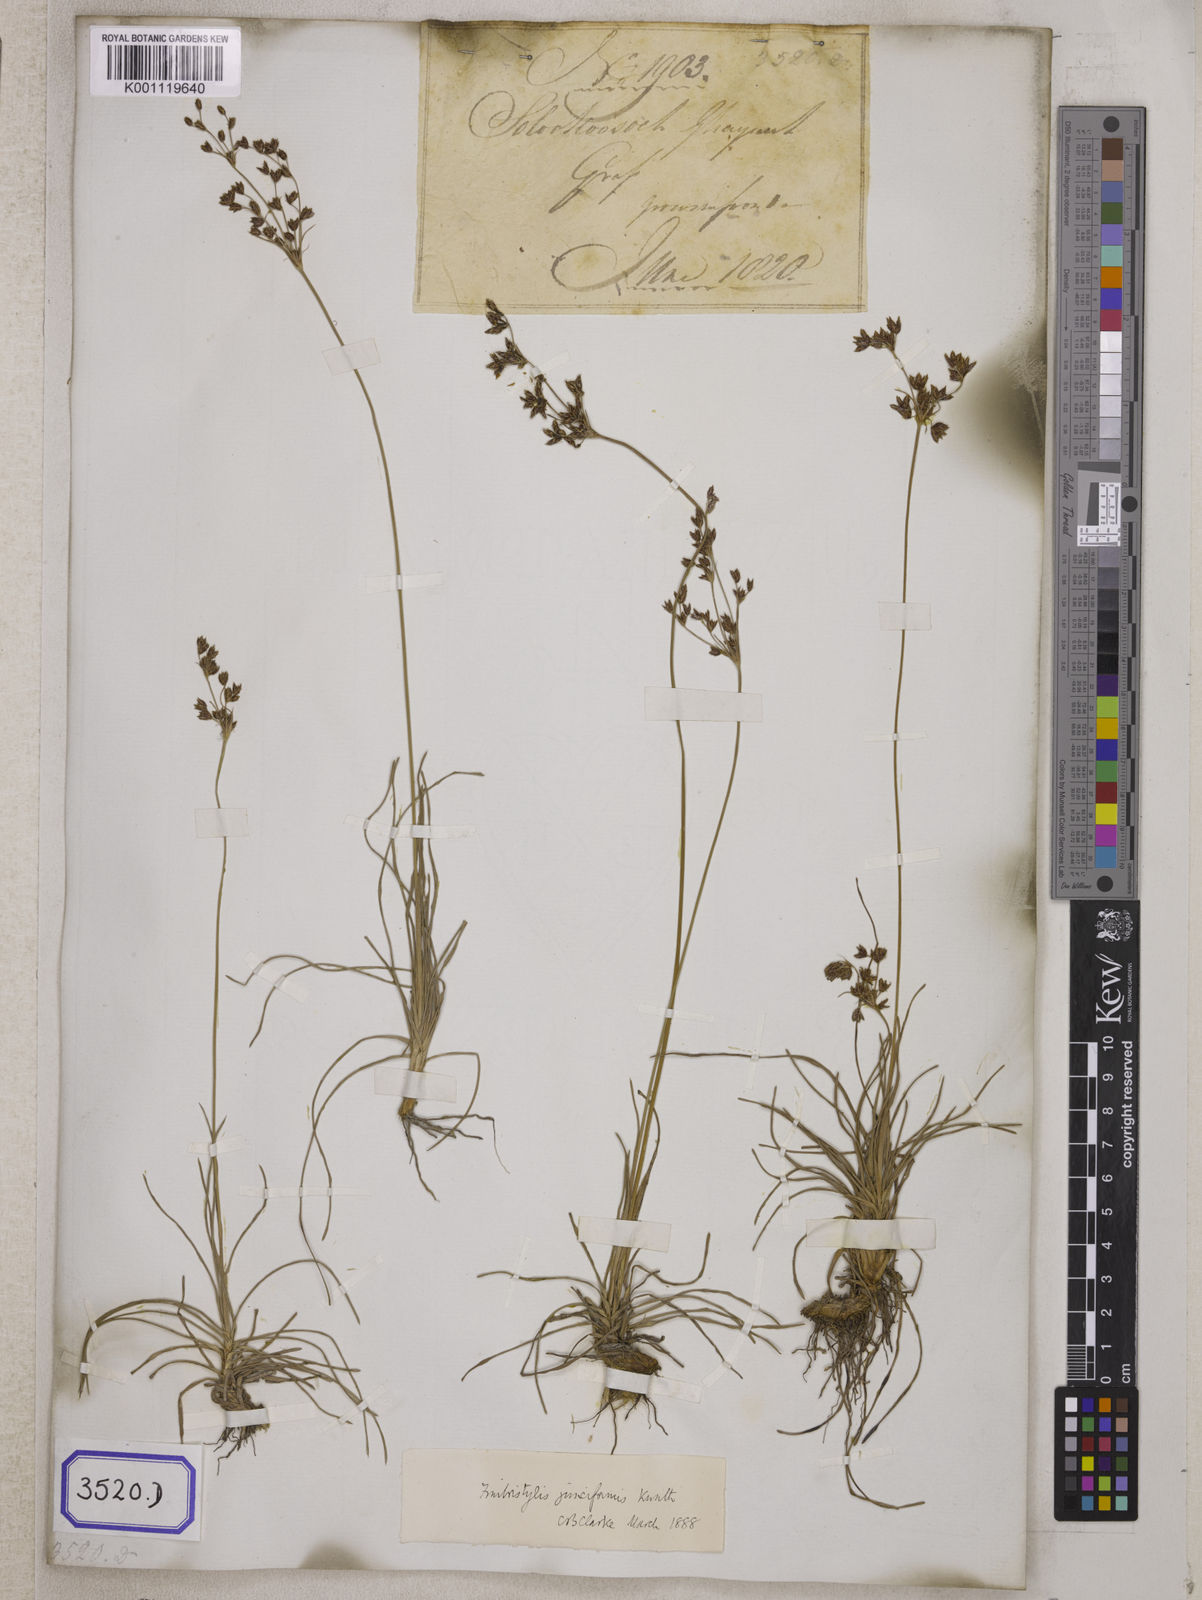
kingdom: Plantae
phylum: Tracheophyta
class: Liliopsida
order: Poales
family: Cyperaceae
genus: Fimbristylis
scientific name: Fimbristylis
